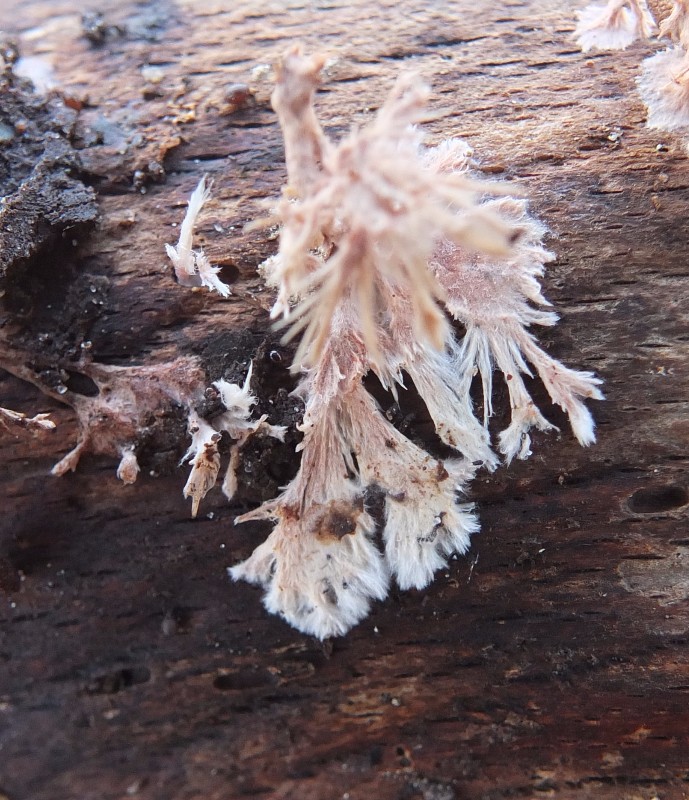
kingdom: Fungi
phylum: Basidiomycota
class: Agaricomycetes
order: Polyporales
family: Steccherinaceae
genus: Steccherinum
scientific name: Steccherinum fimbriatum
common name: trådet skønpig
